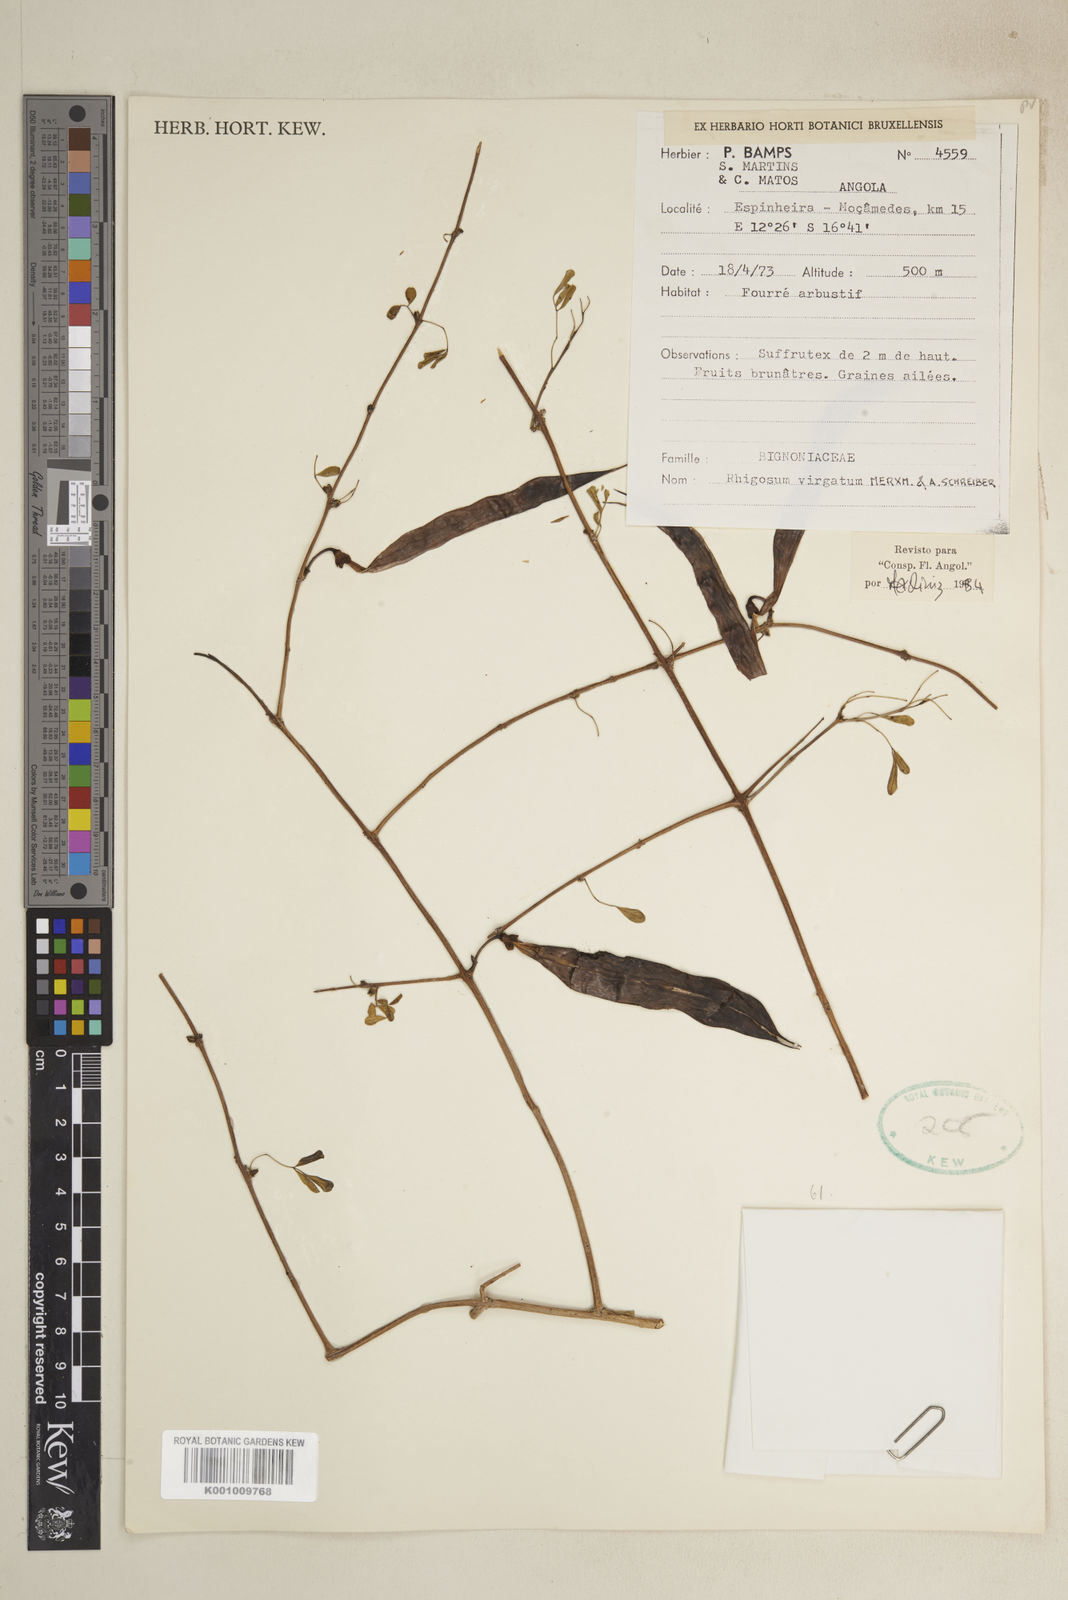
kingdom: Plantae
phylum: Tracheophyta
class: Magnoliopsida
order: Lamiales
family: Bignoniaceae
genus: Rhigozum
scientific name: Rhigozum virgatum
